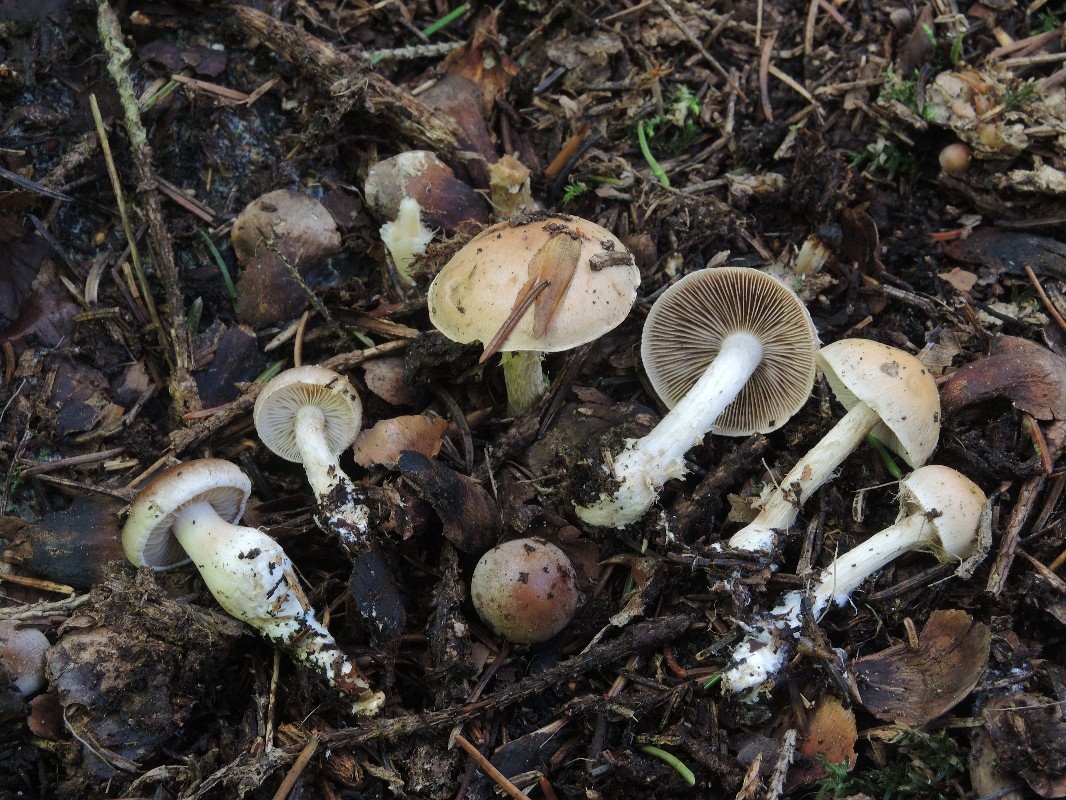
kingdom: Fungi
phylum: Basidiomycota
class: Agaricomycetes
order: Agaricales
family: Hymenogastraceae
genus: Hebeloma
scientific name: Hebeloma birrus
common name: rodslående tåreblad
